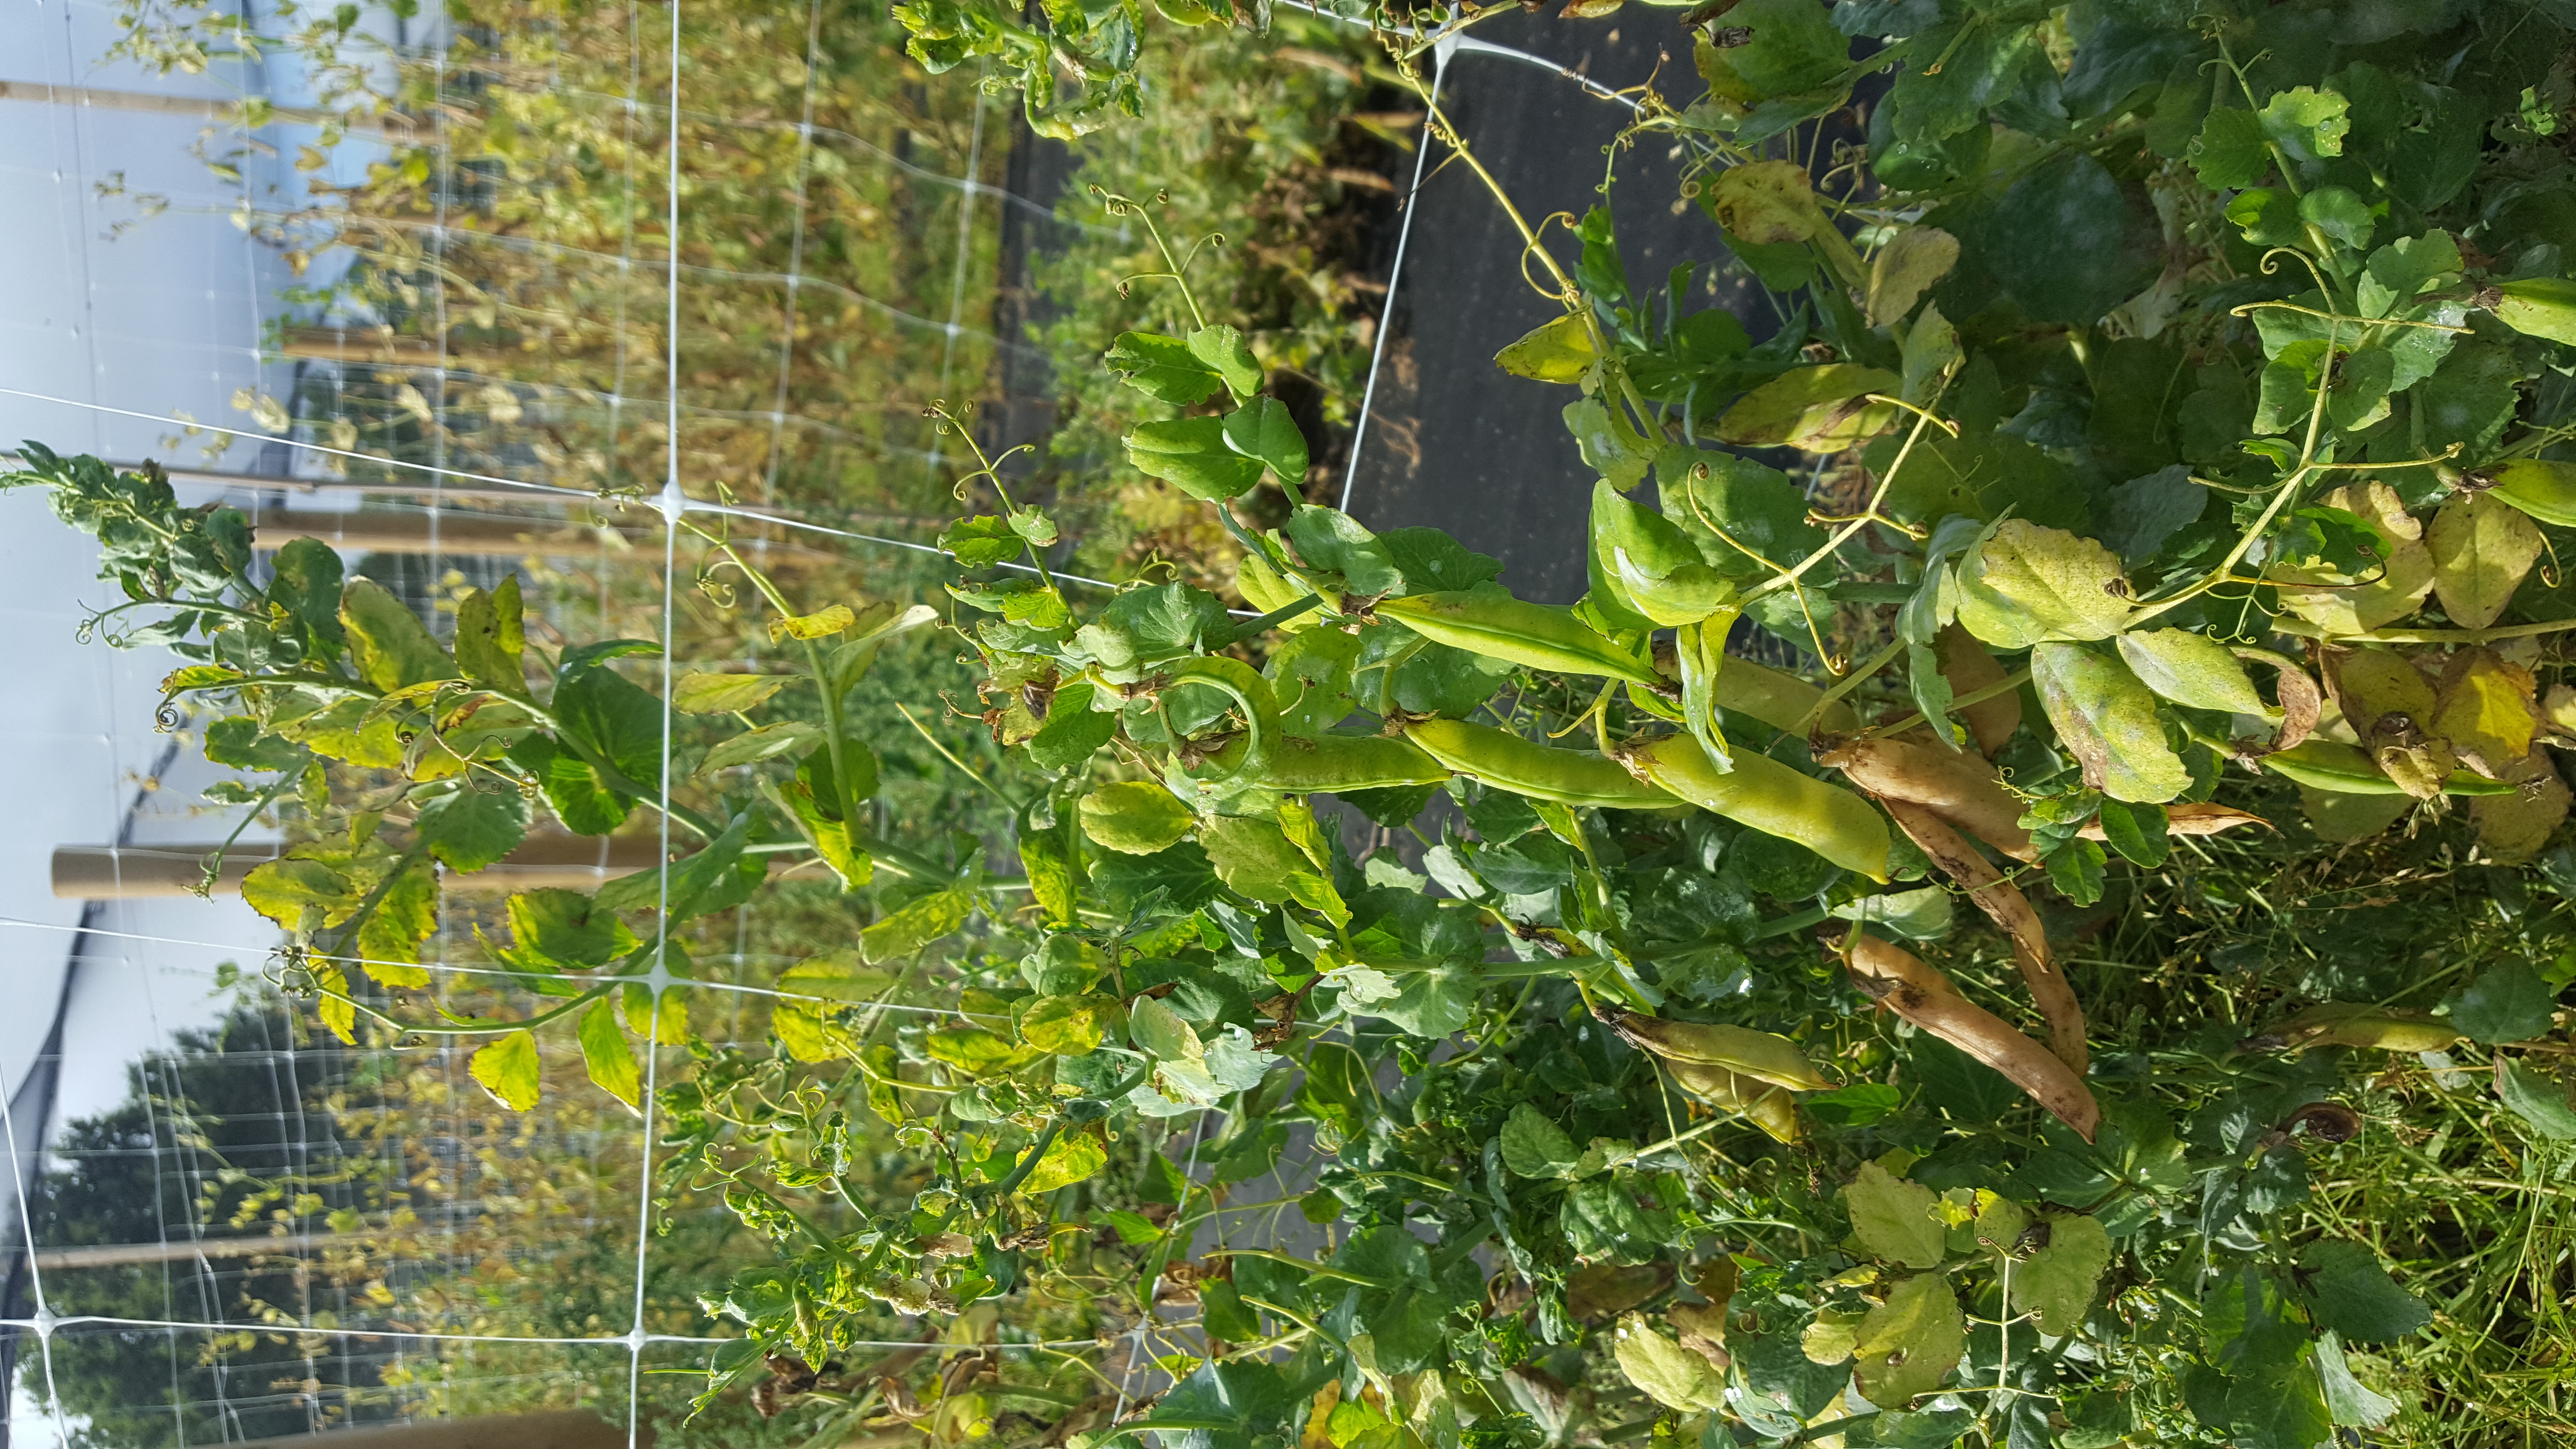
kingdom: Plantae
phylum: Tracheophyta
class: Magnoliopsida
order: Fabales
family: Fabaceae
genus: Lathyrus
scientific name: Lathyrus oleraceus
